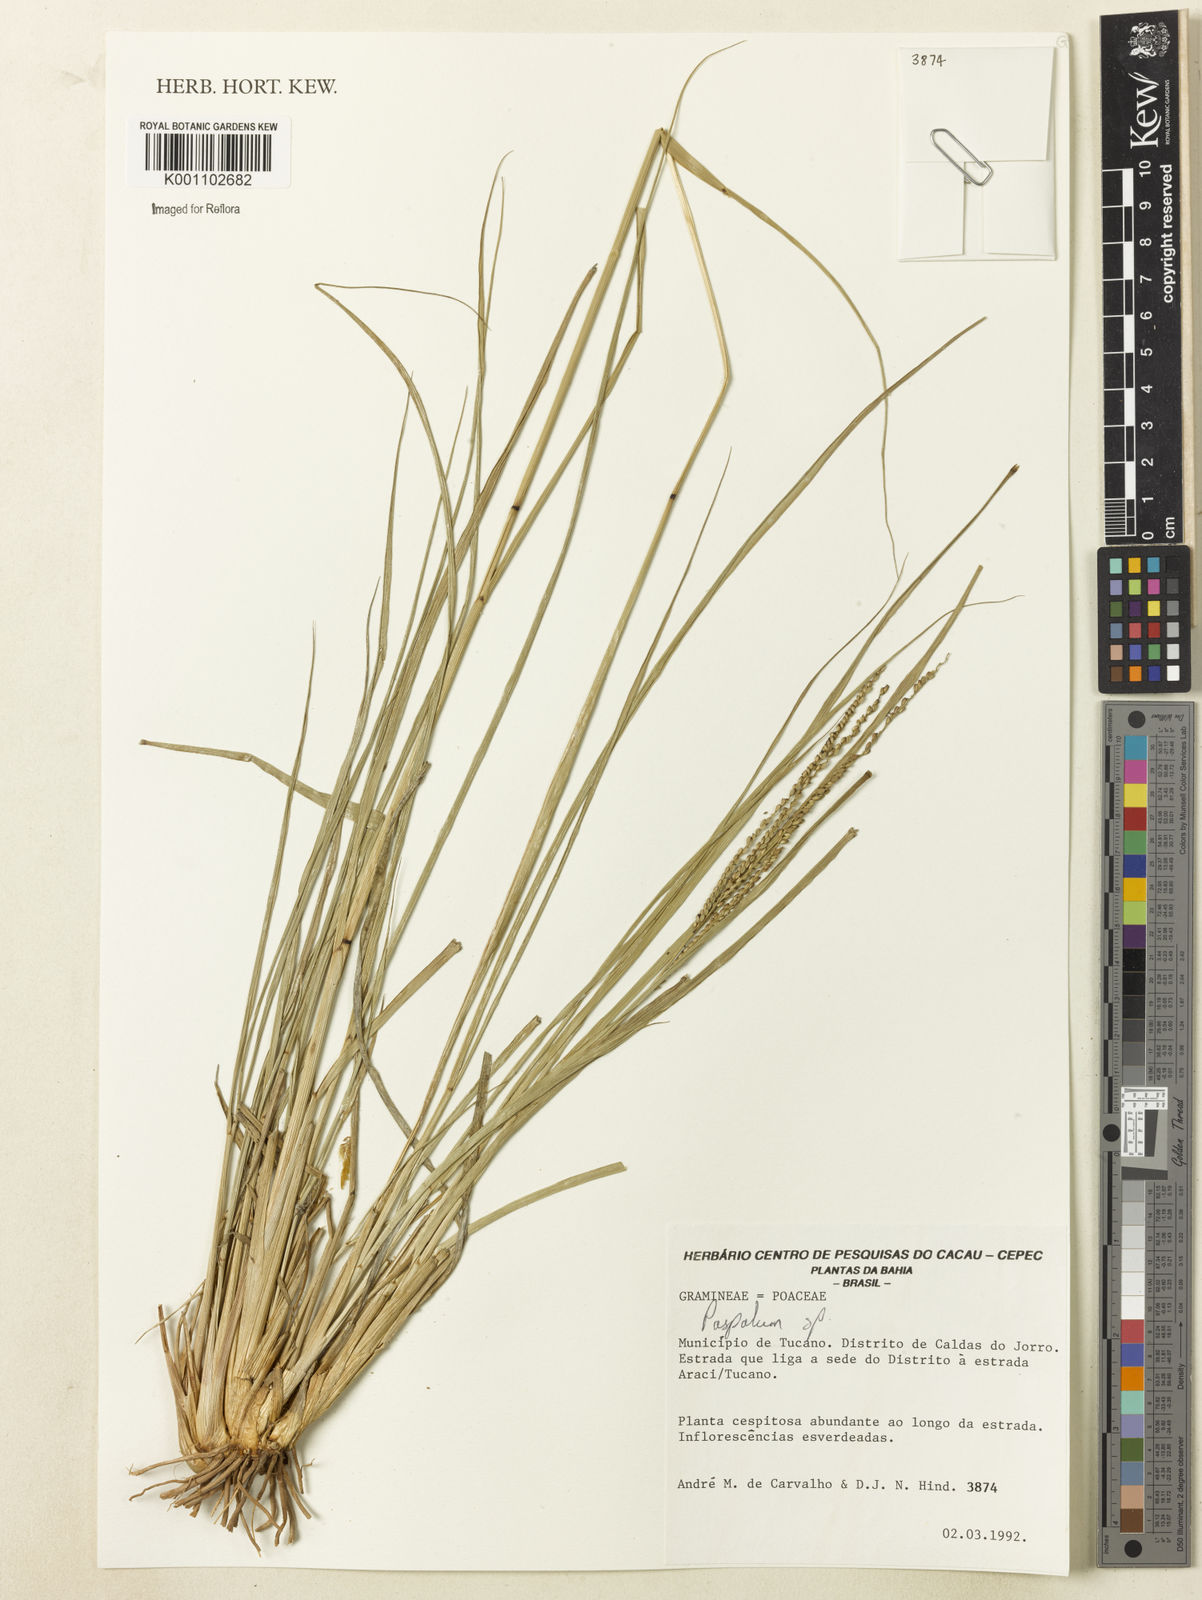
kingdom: Plantae
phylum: Tracheophyta
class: Liliopsida
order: Poales
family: Poaceae
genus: Paspalum
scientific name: Paspalum
